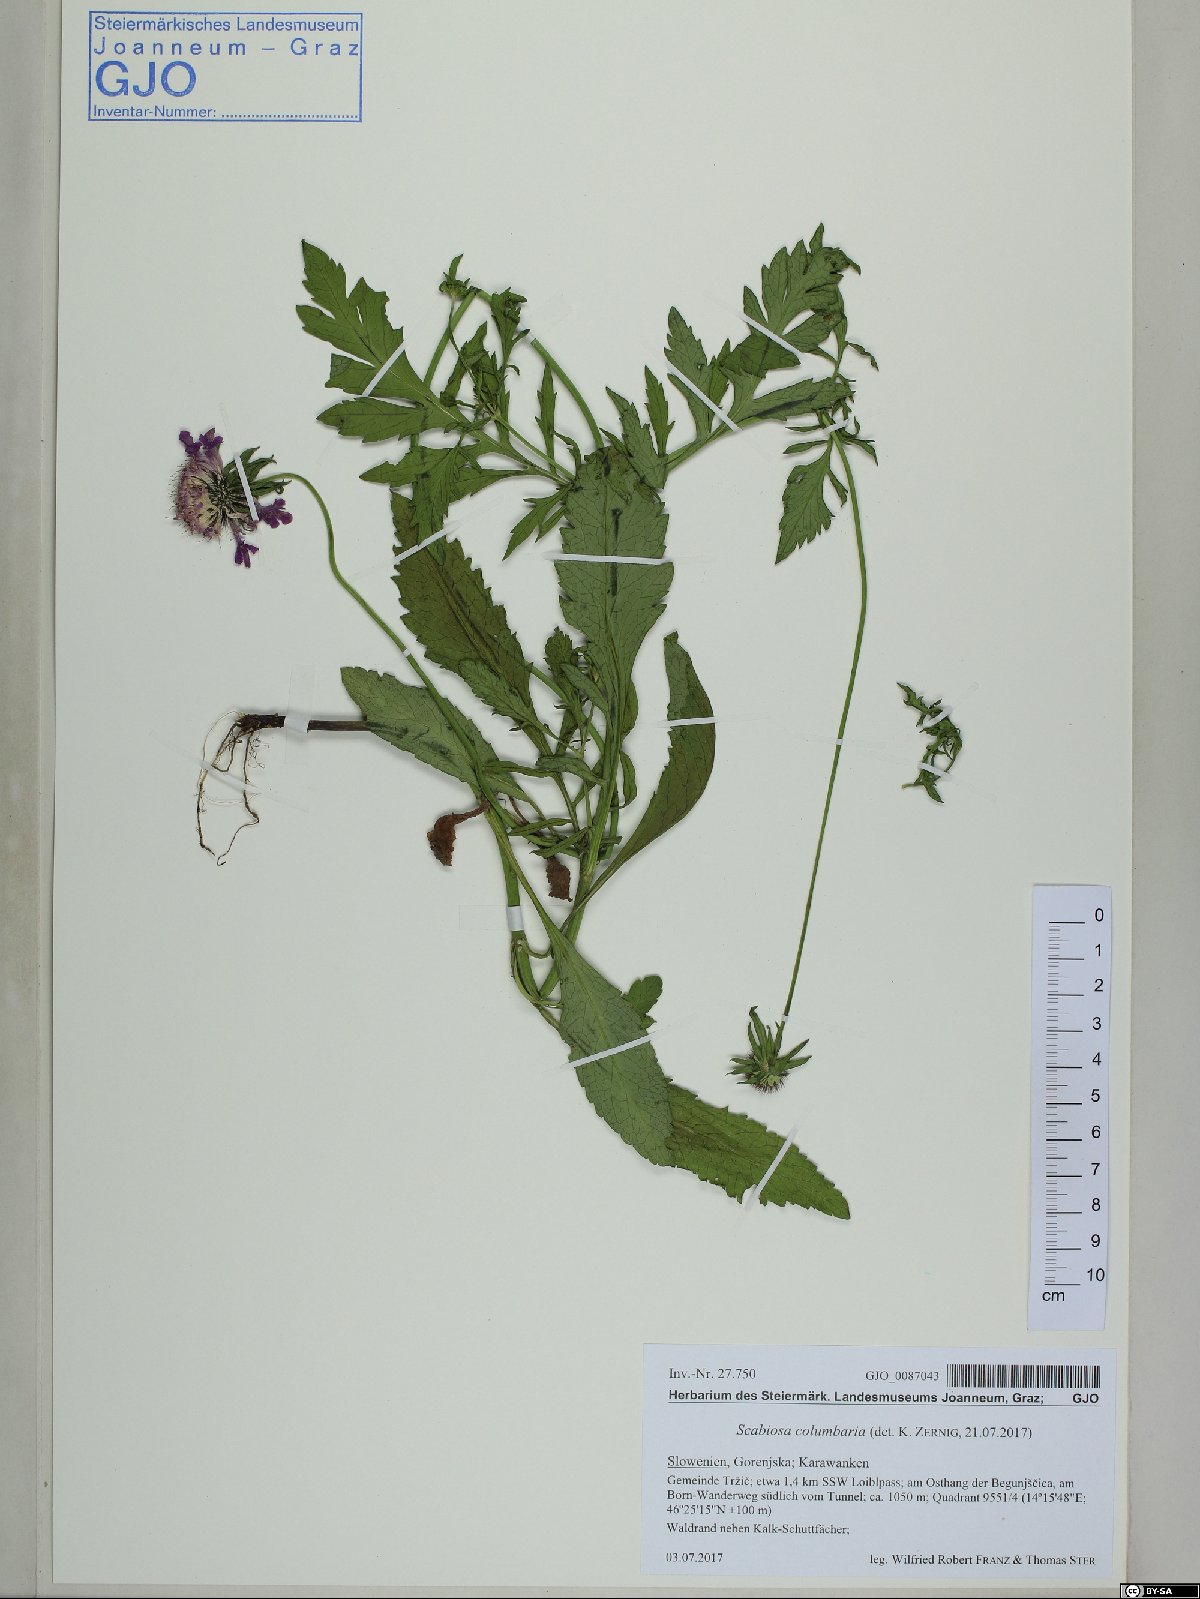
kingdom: Plantae
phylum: Tracheophyta
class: Magnoliopsida
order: Dipsacales
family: Caprifoliaceae
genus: Scabiosa
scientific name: Scabiosa columbaria
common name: Small scabious
